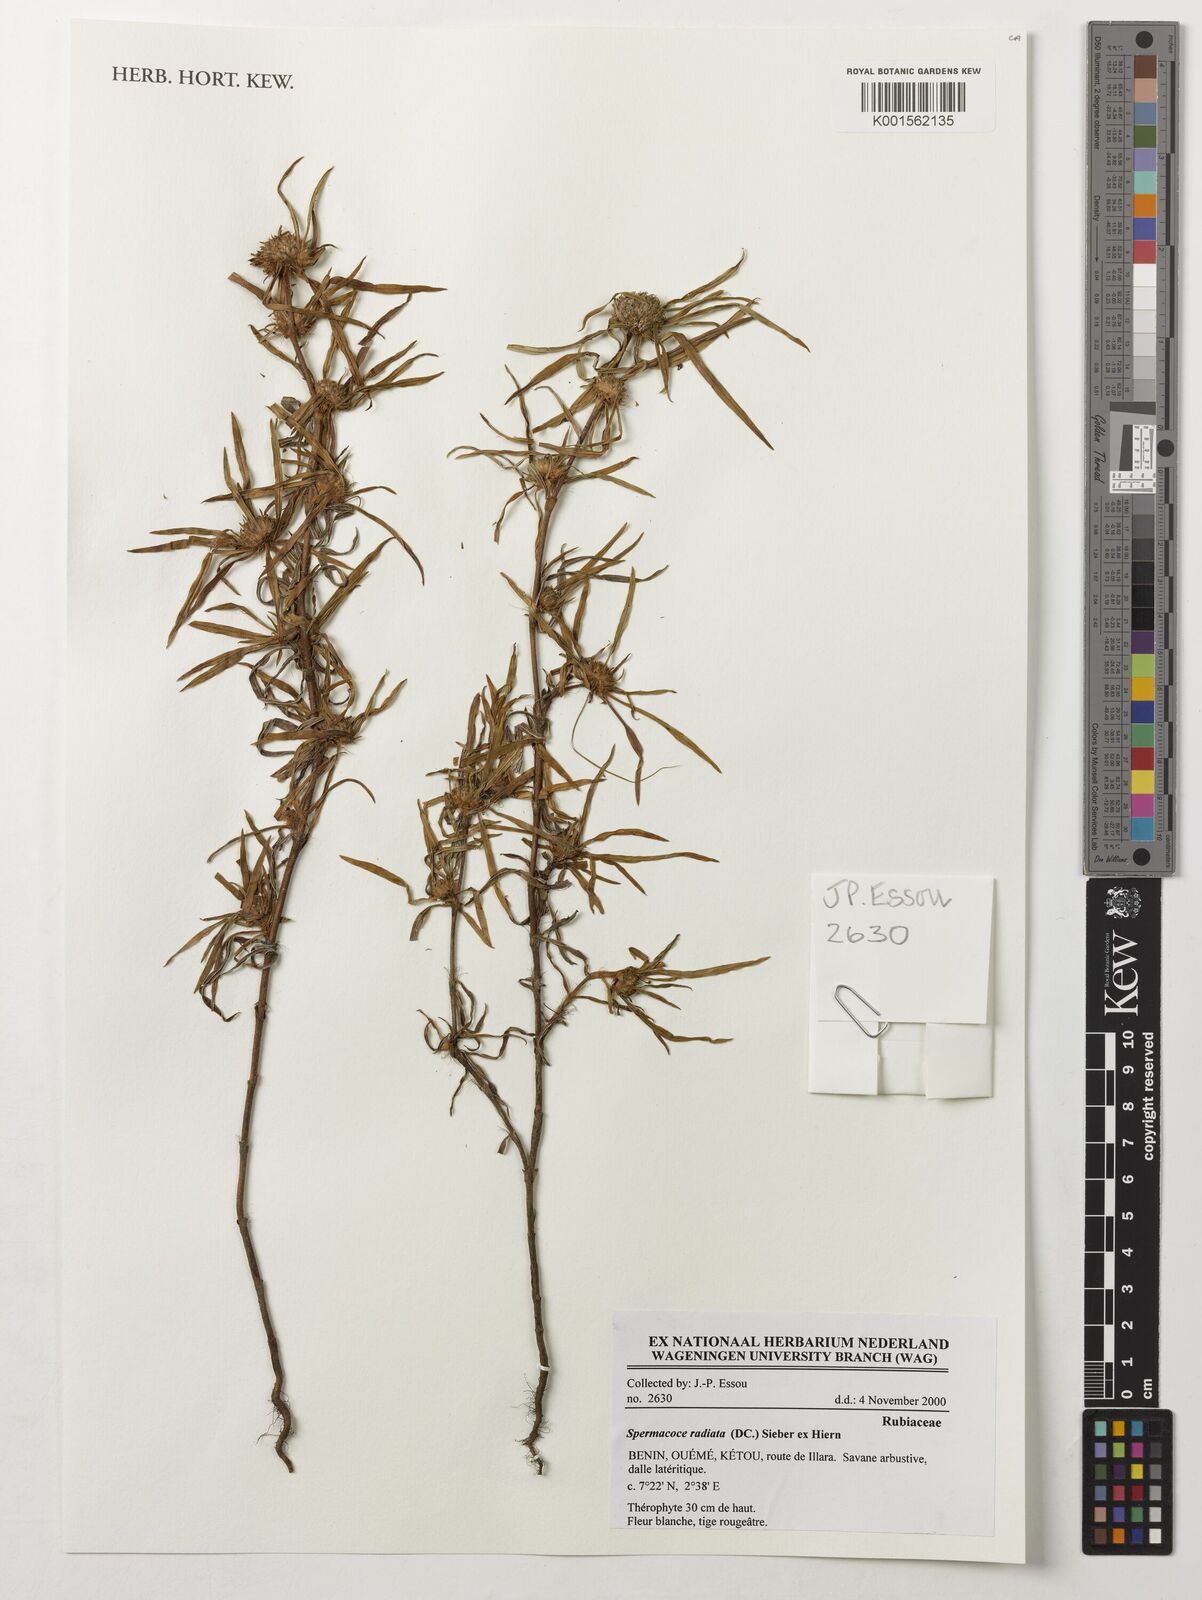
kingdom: Plantae
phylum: Tracheophyta
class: Magnoliopsida
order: Gentianales
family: Rubiaceae
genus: Spermacoce
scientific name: Spermacoce radiata
